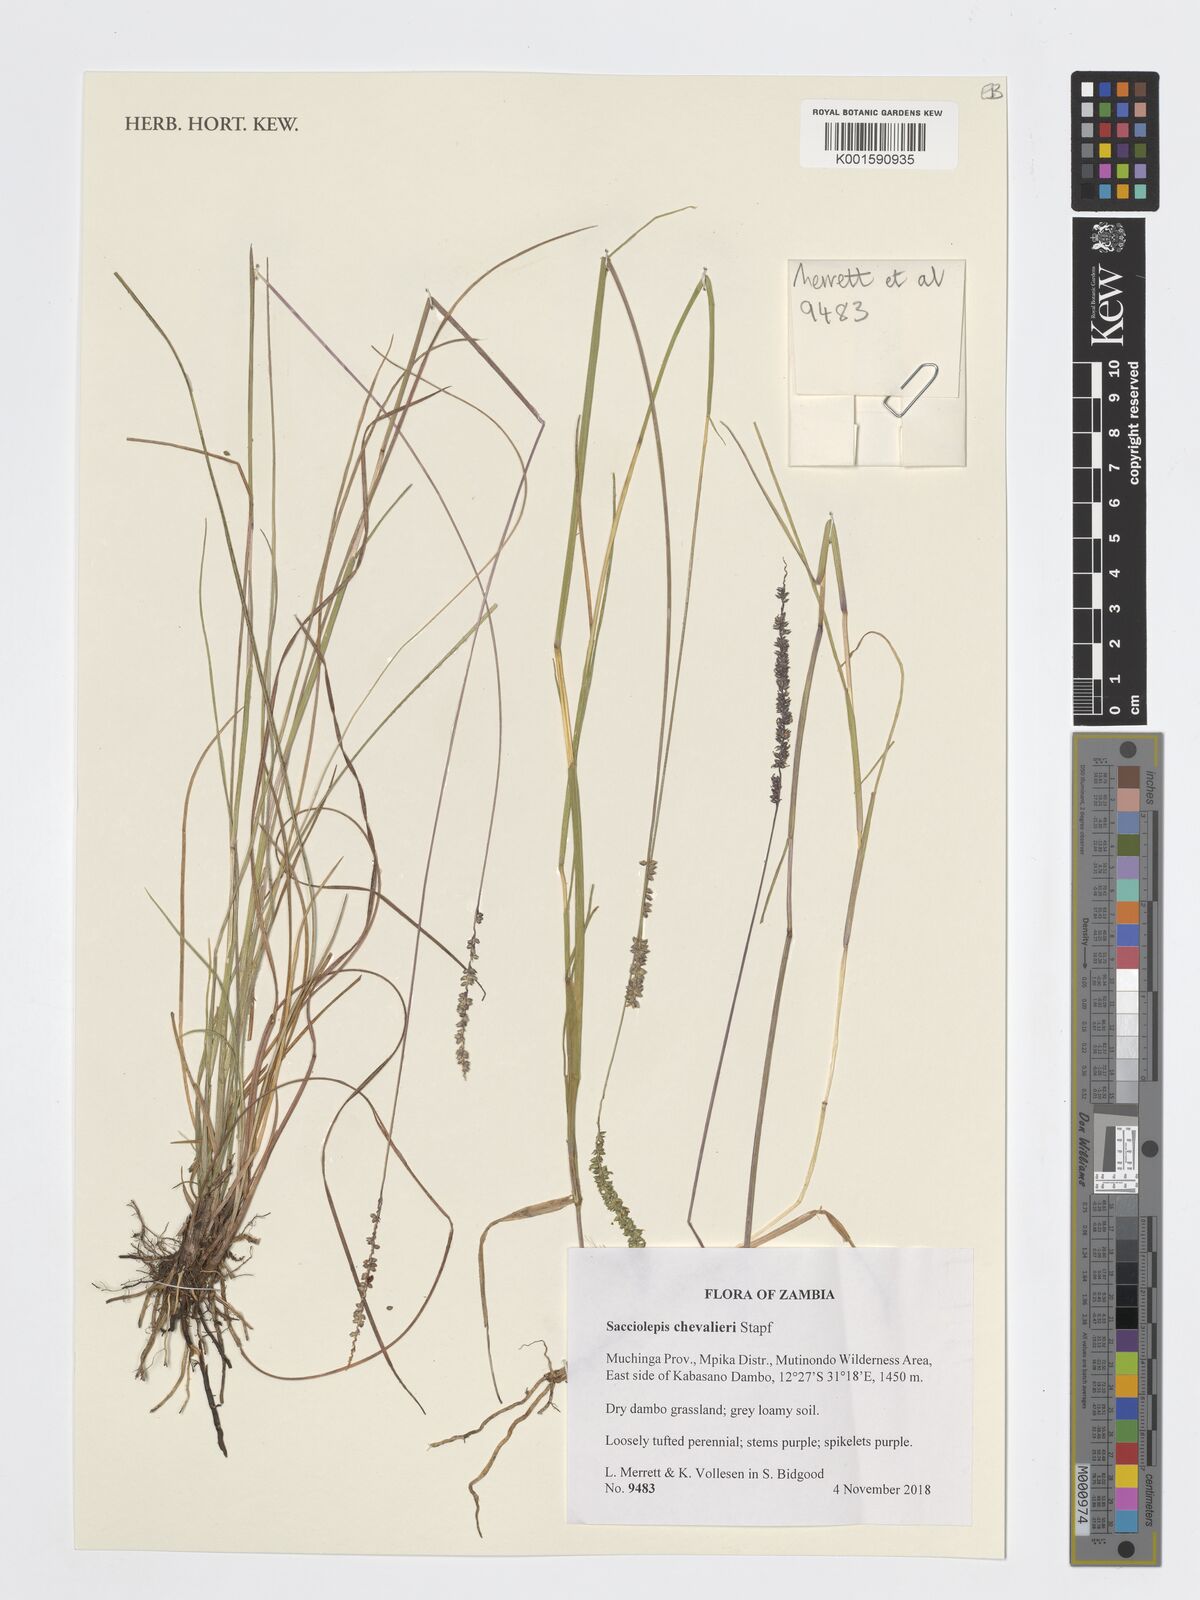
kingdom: Plantae
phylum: Tracheophyta
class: Liliopsida
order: Poales
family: Poaceae
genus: Sacciolepis
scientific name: Sacciolepis chevalieri
